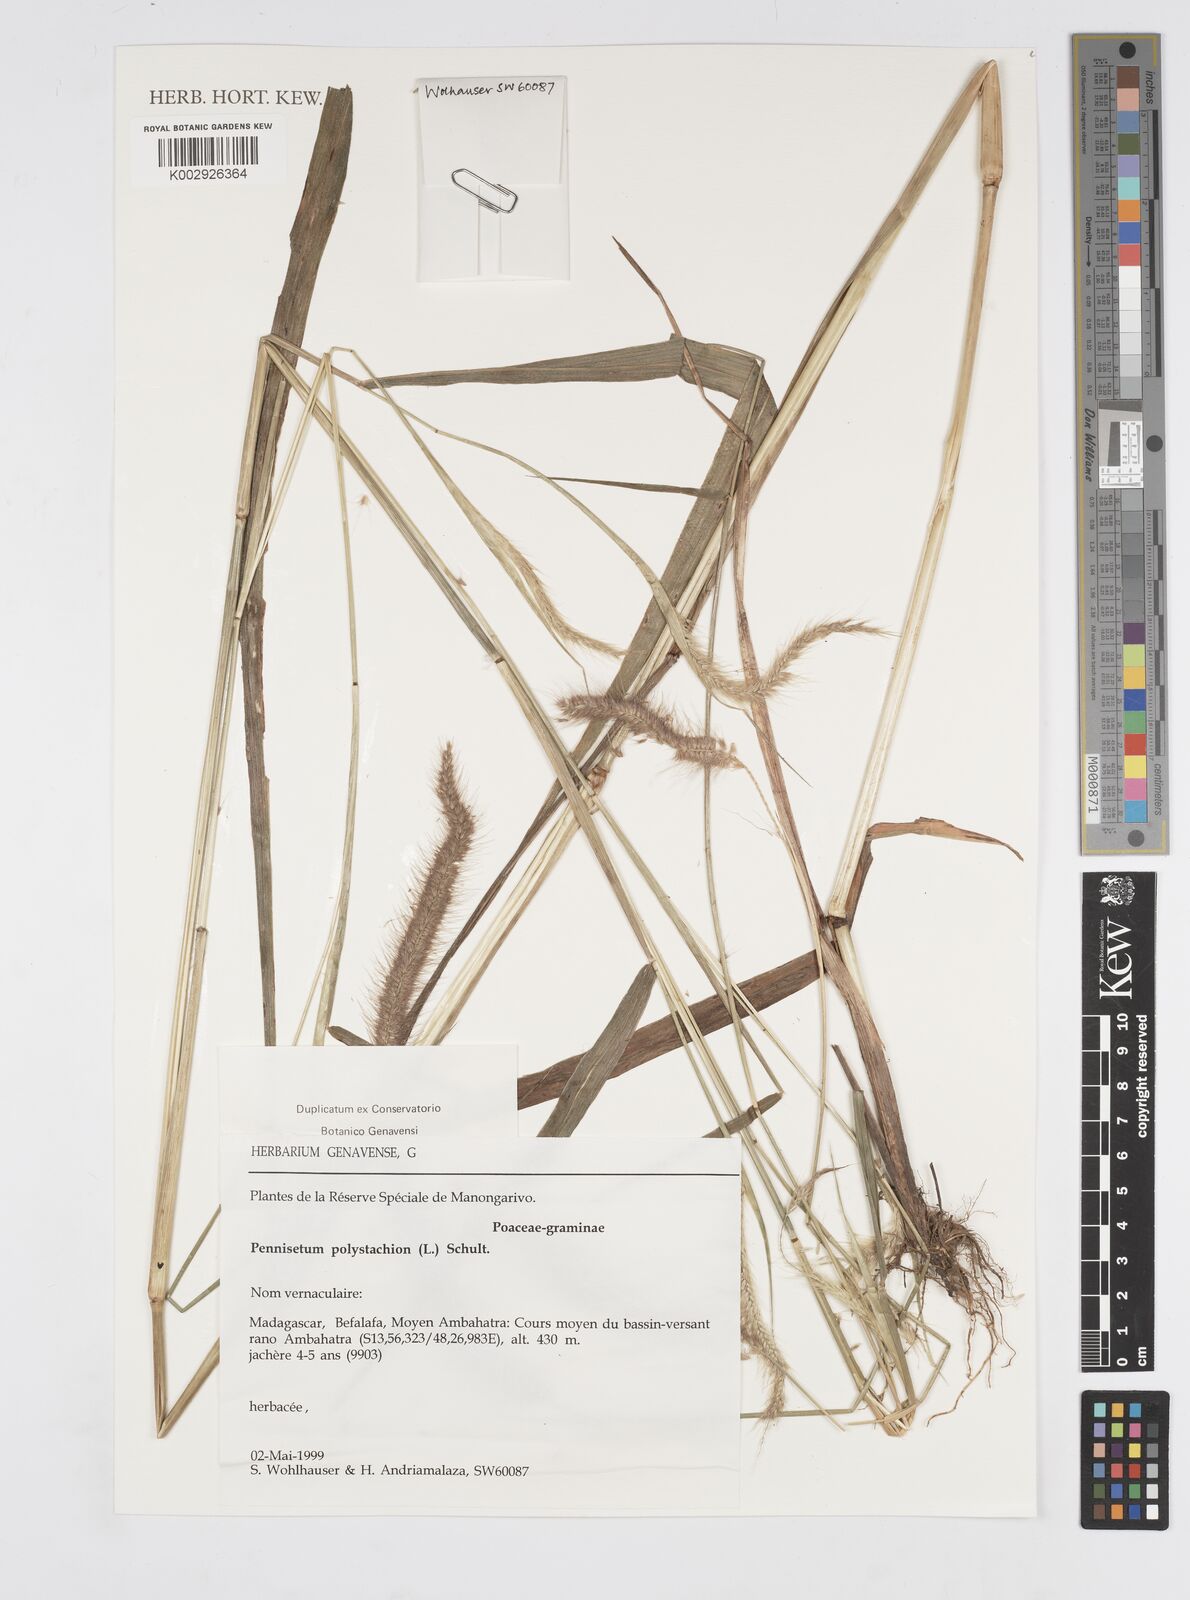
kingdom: Plantae
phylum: Tracheophyta
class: Liliopsida
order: Poales
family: Poaceae
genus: Setaria
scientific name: Setaria parviflora
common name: Knotroot bristle-grass
